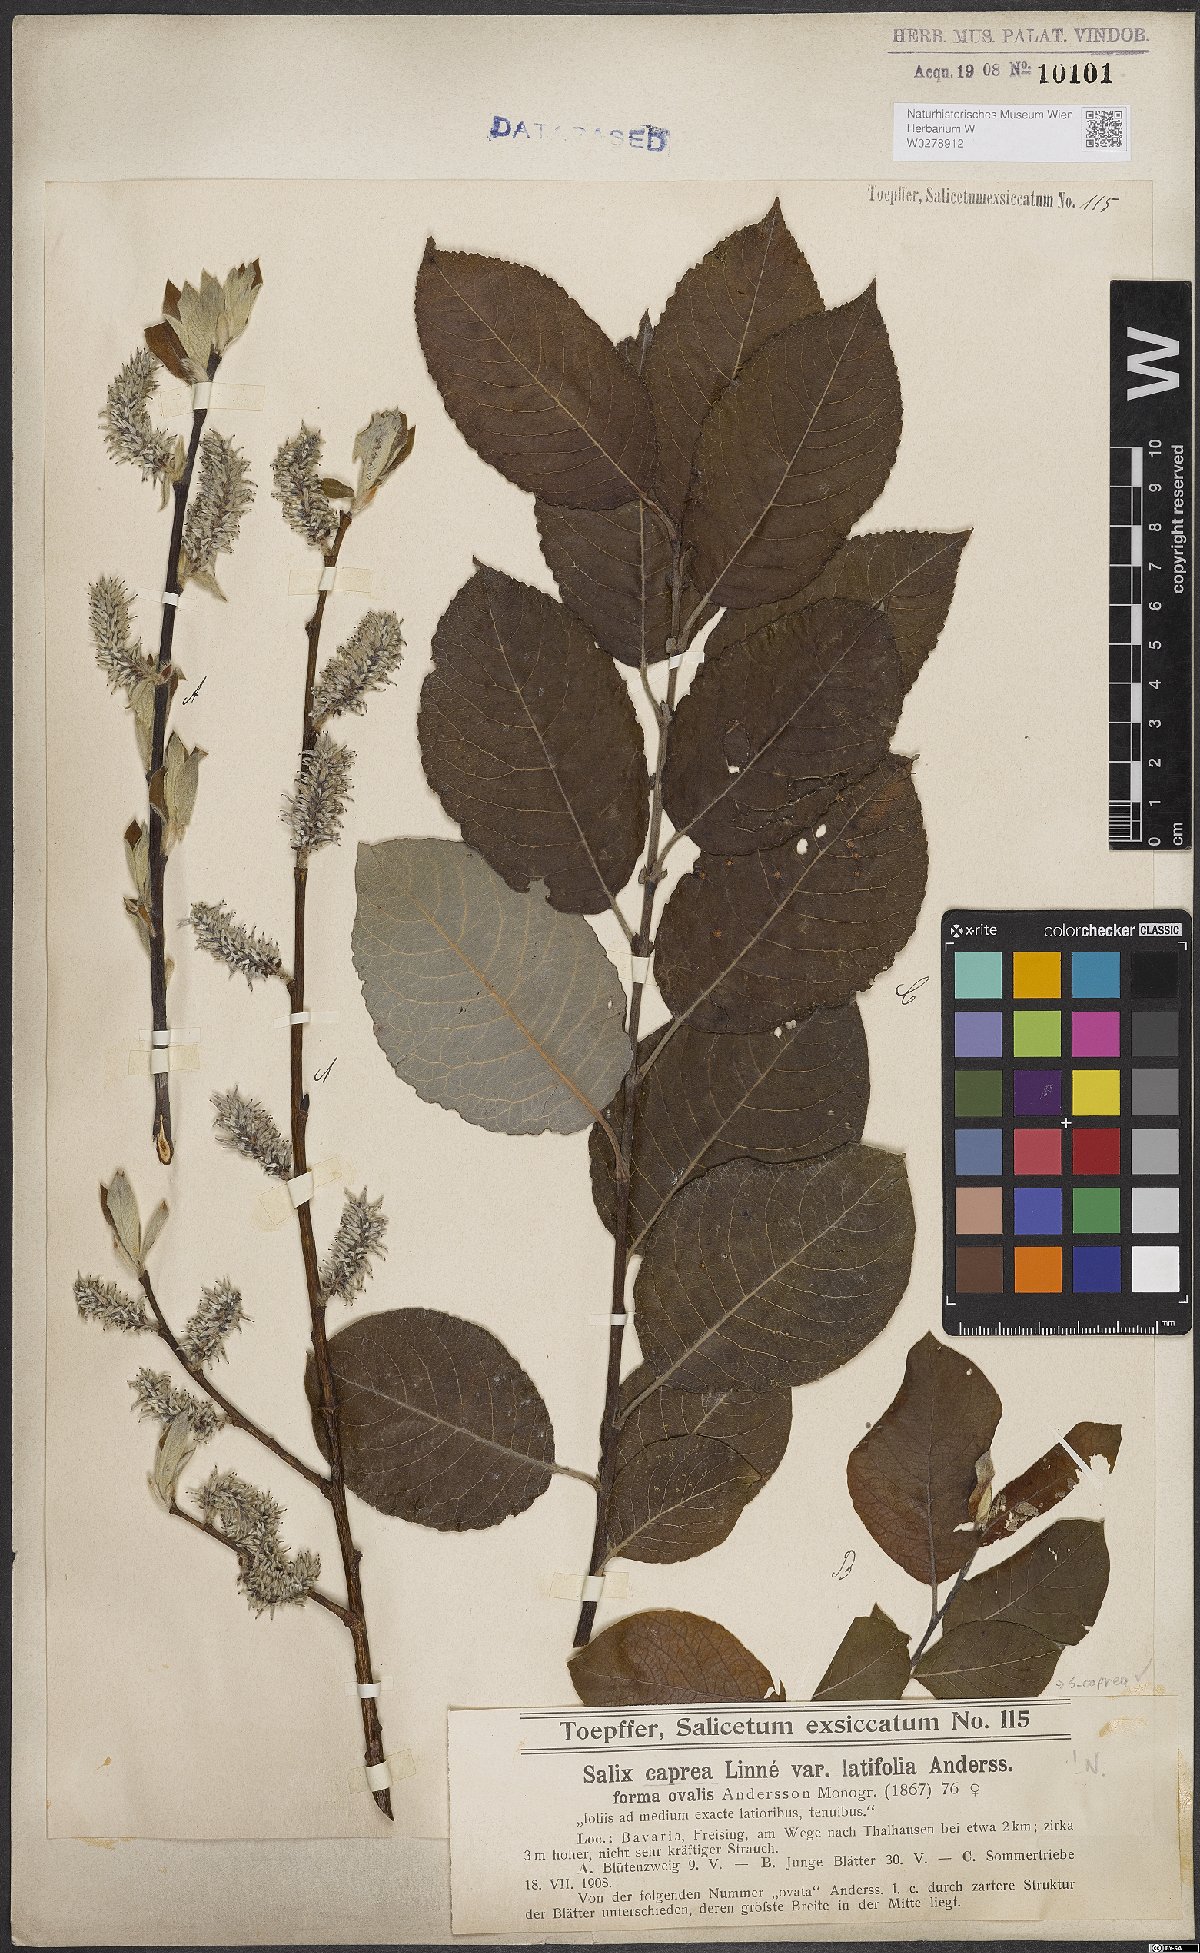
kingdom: Plantae
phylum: Tracheophyta
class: Magnoliopsida
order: Malpighiales
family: Salicaceae
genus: Salix
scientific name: Salix caprea
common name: Goat willow
